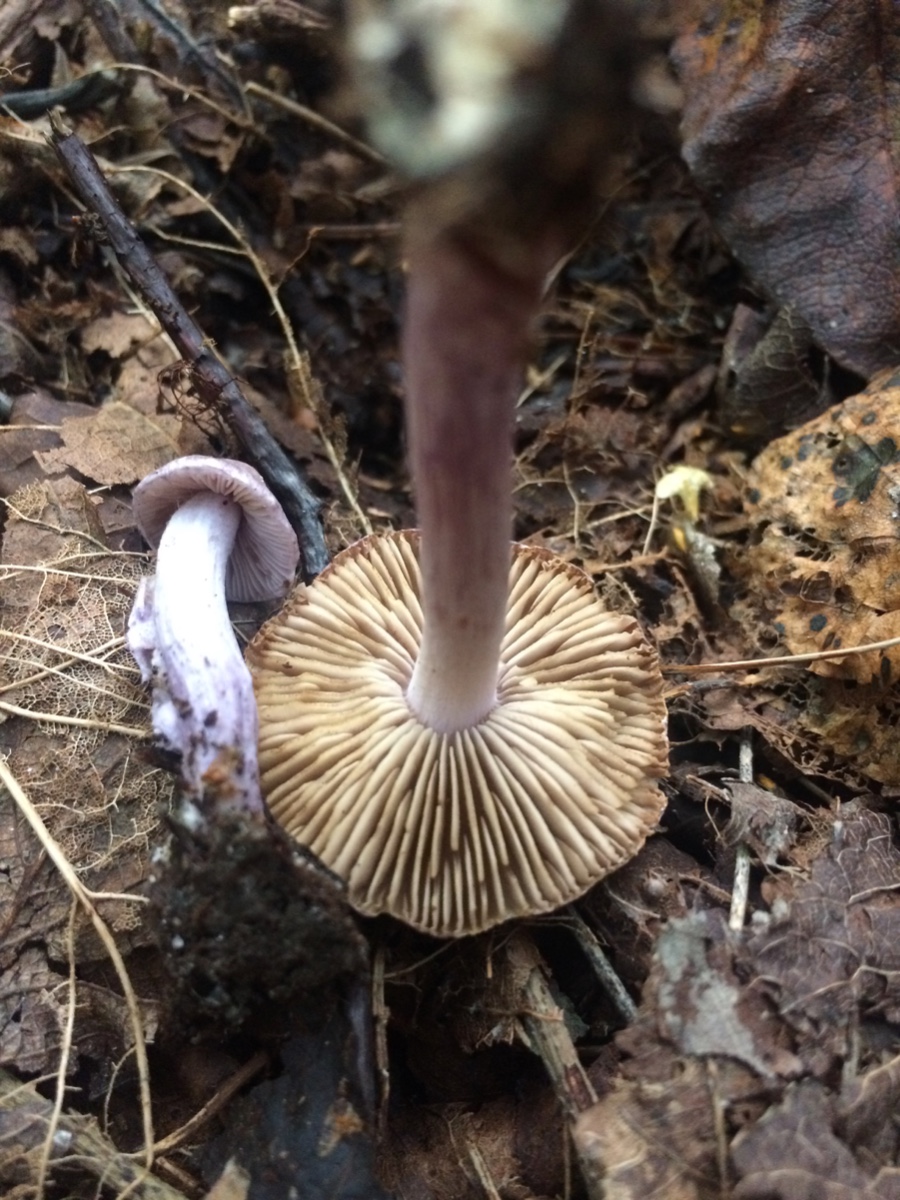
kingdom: Fungi
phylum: Basidiomycota
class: Agaricomycetes
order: Agaricales
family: Inocybaceae
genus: Inocybe
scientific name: Inocybe geophylla
